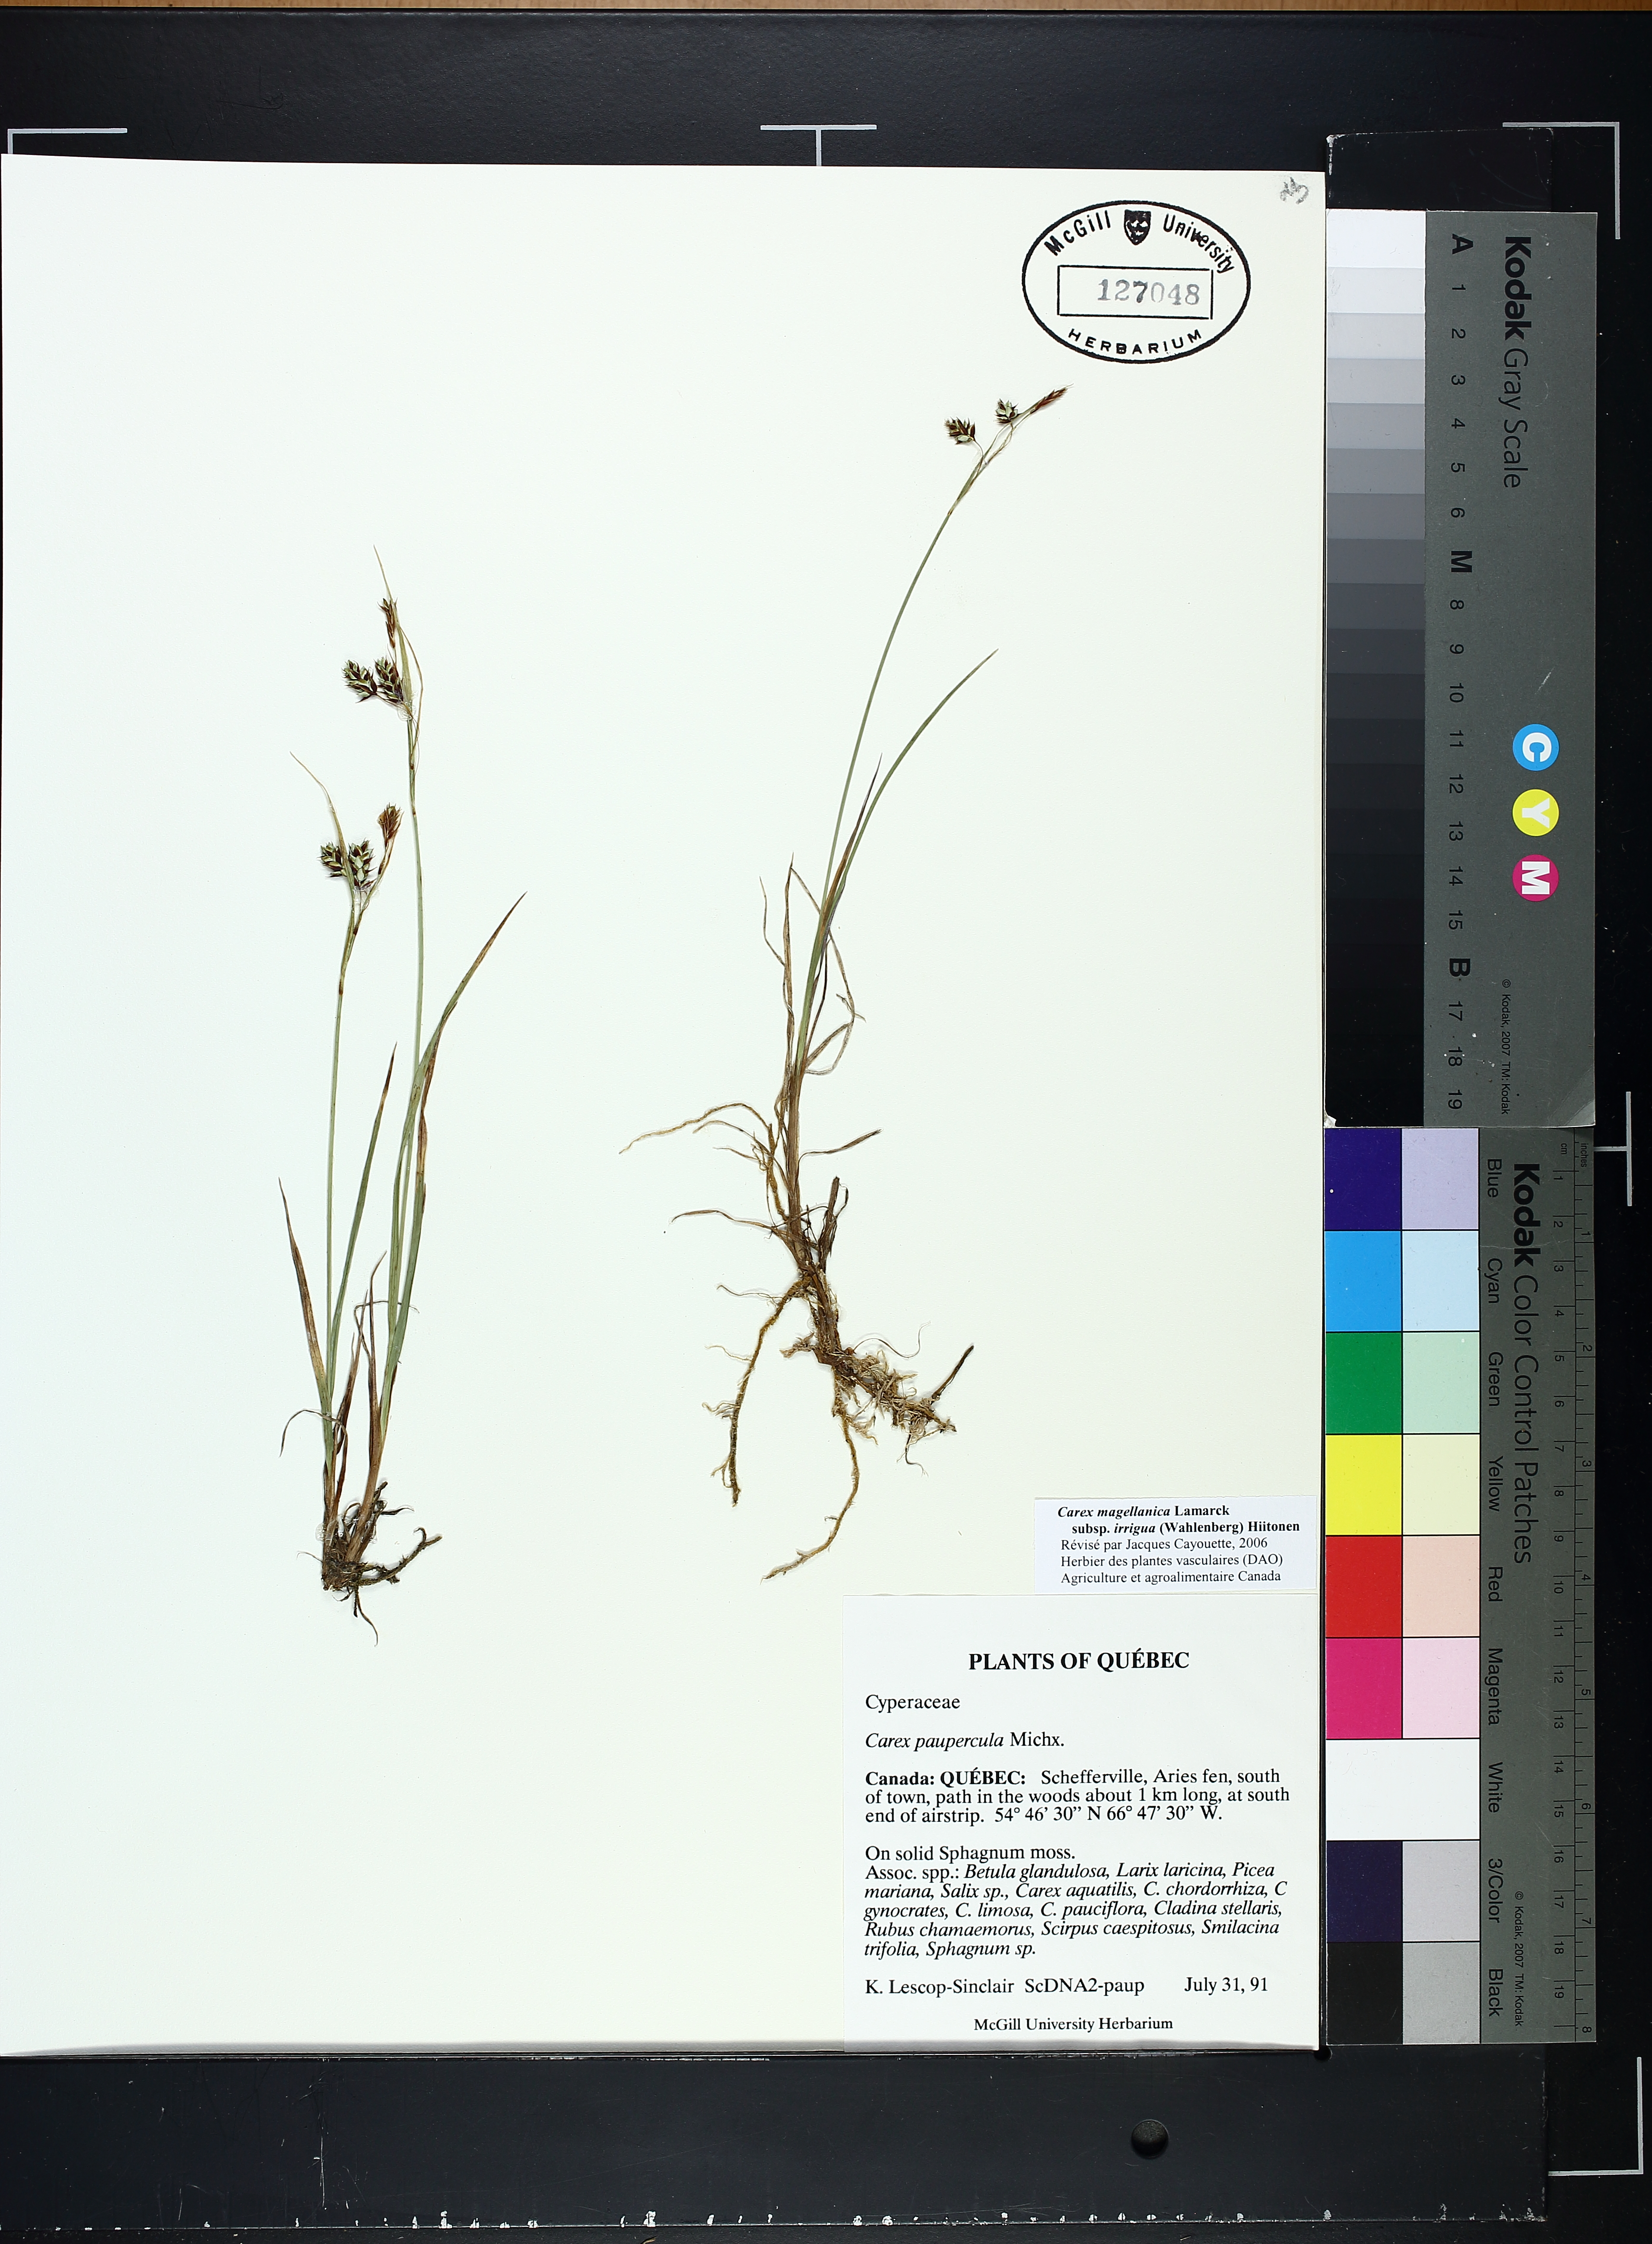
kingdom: Plantae
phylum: Tracheophyta
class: Liliopsida
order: Poales
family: Cyperaceae
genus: Carex
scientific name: Carex magellanica
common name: Bog sedge
